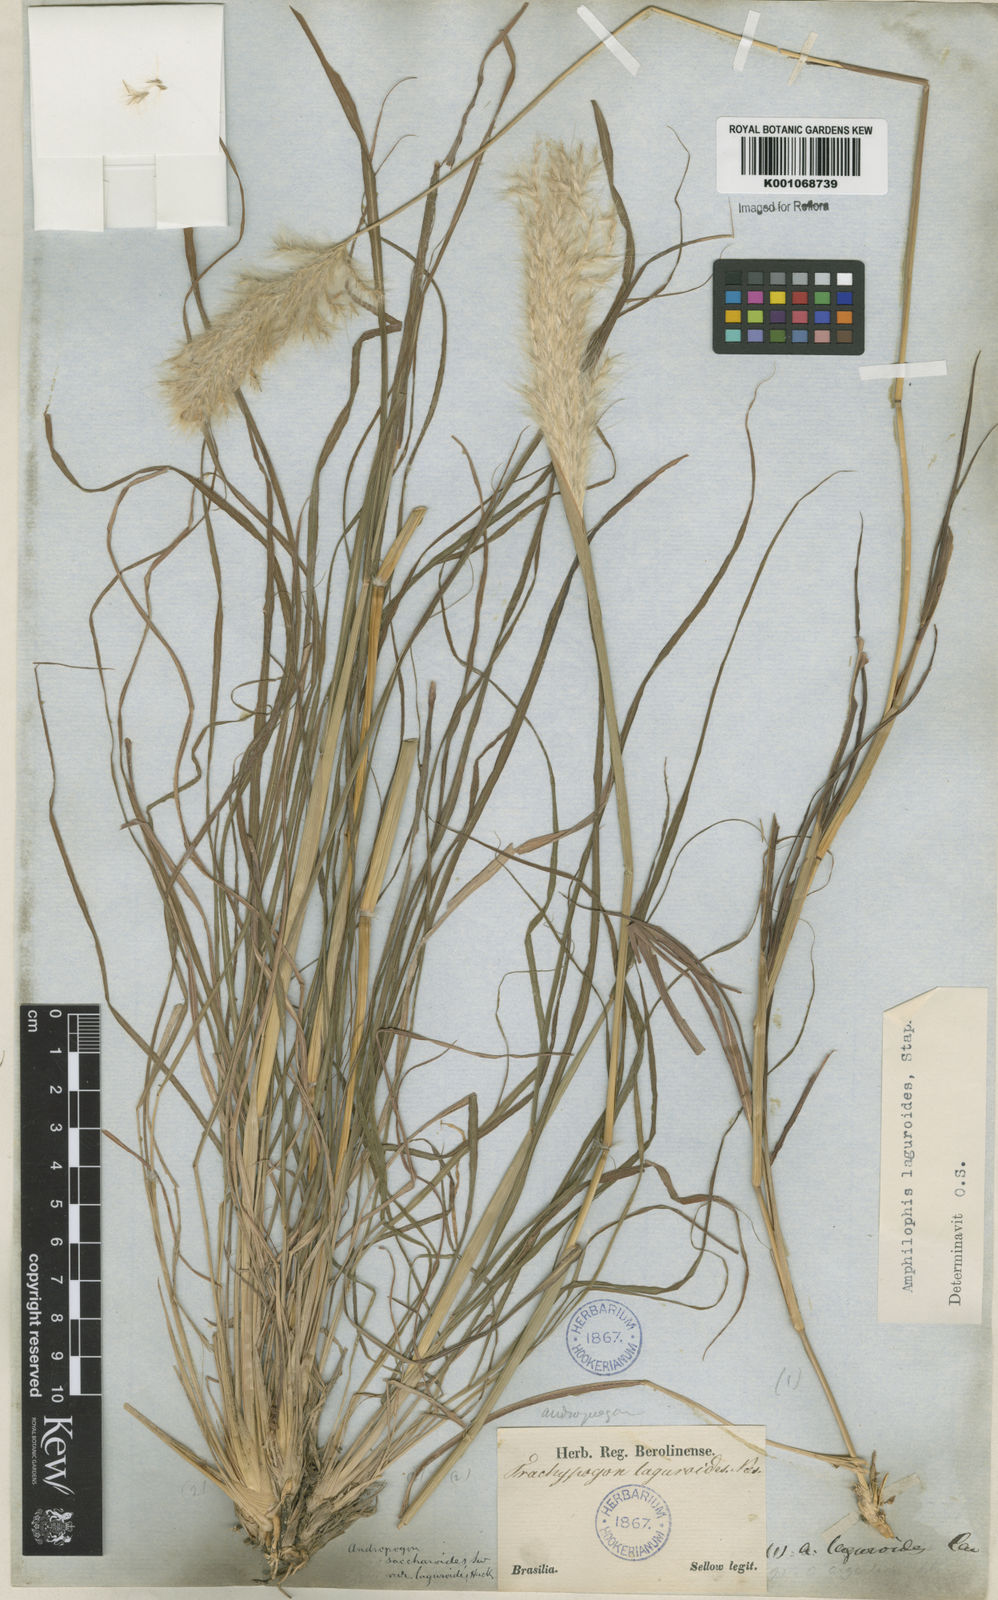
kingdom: Plantae
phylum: Tracheophyta
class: Liliopsida
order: Poales
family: Poaceae
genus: Bothriochloa
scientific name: Bothriochloa laguroides
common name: Silver bluestem
